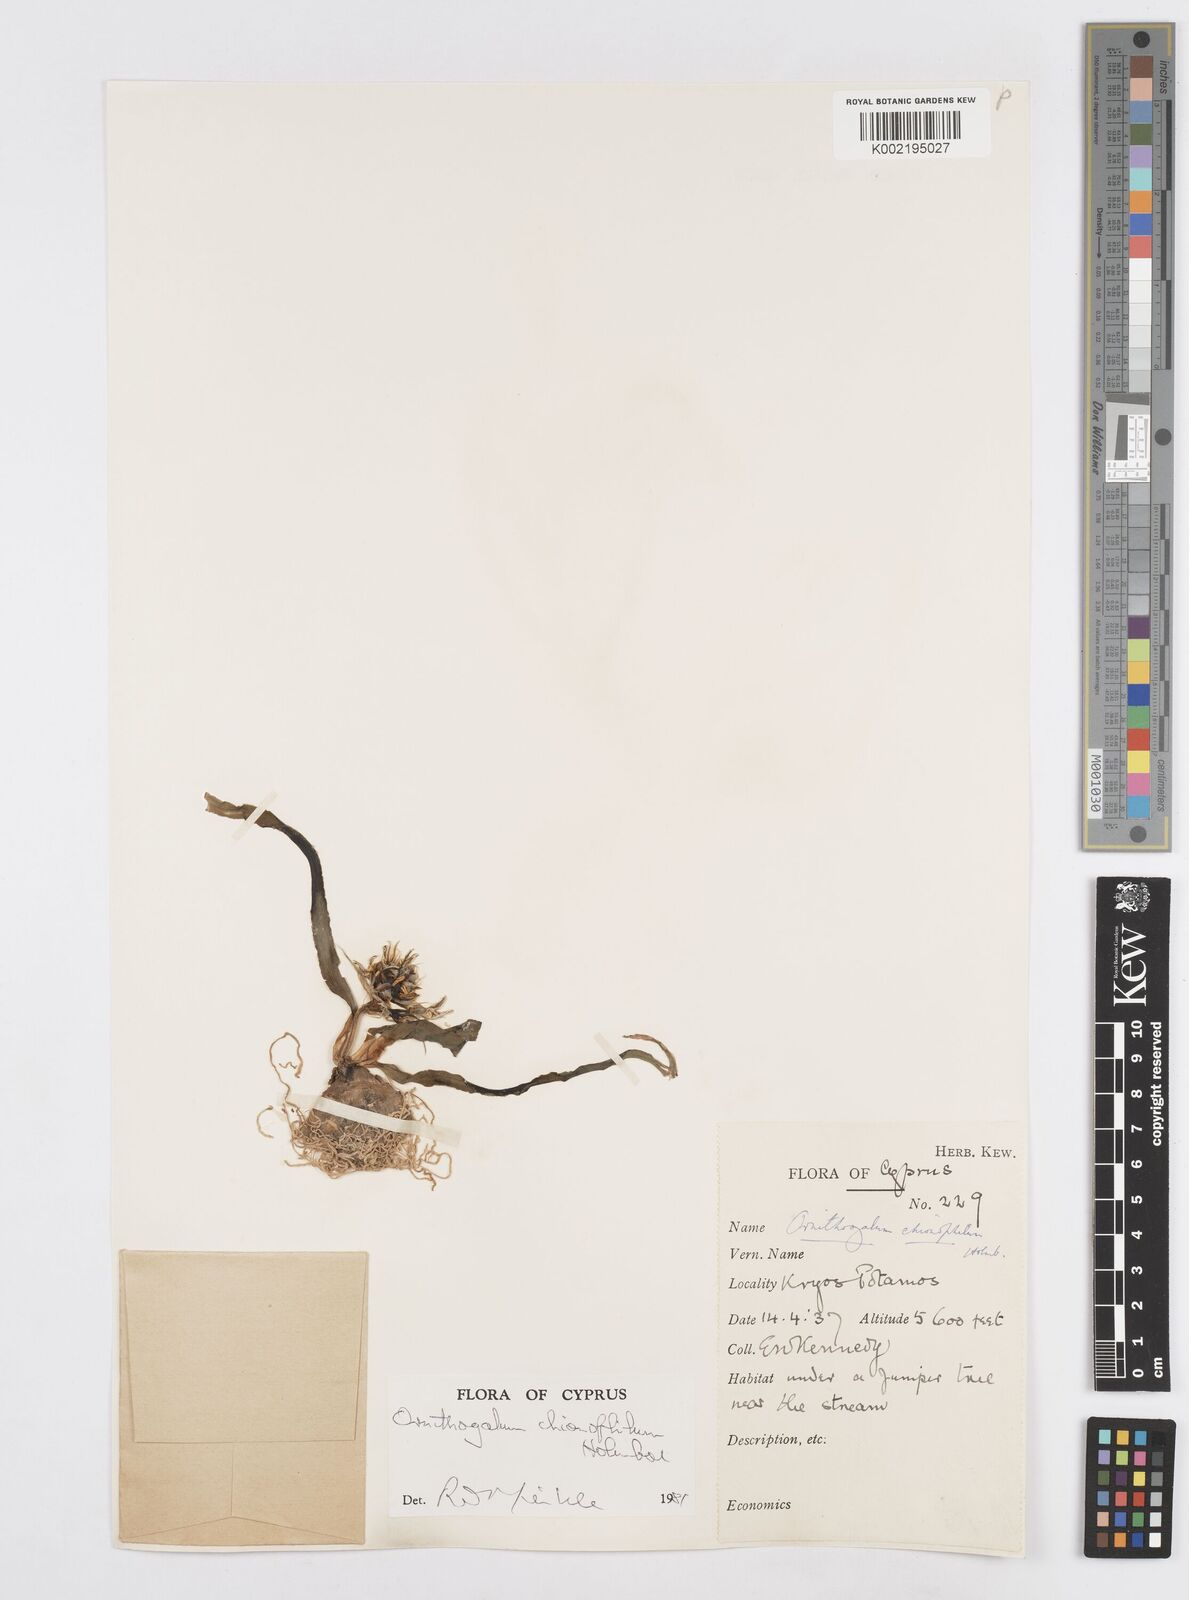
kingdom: Plantae
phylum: Tracheophyta
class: Liliopsida
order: Asparagales
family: Asparagaceae
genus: Ornithogalum
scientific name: Ornithogalum chionophilum
